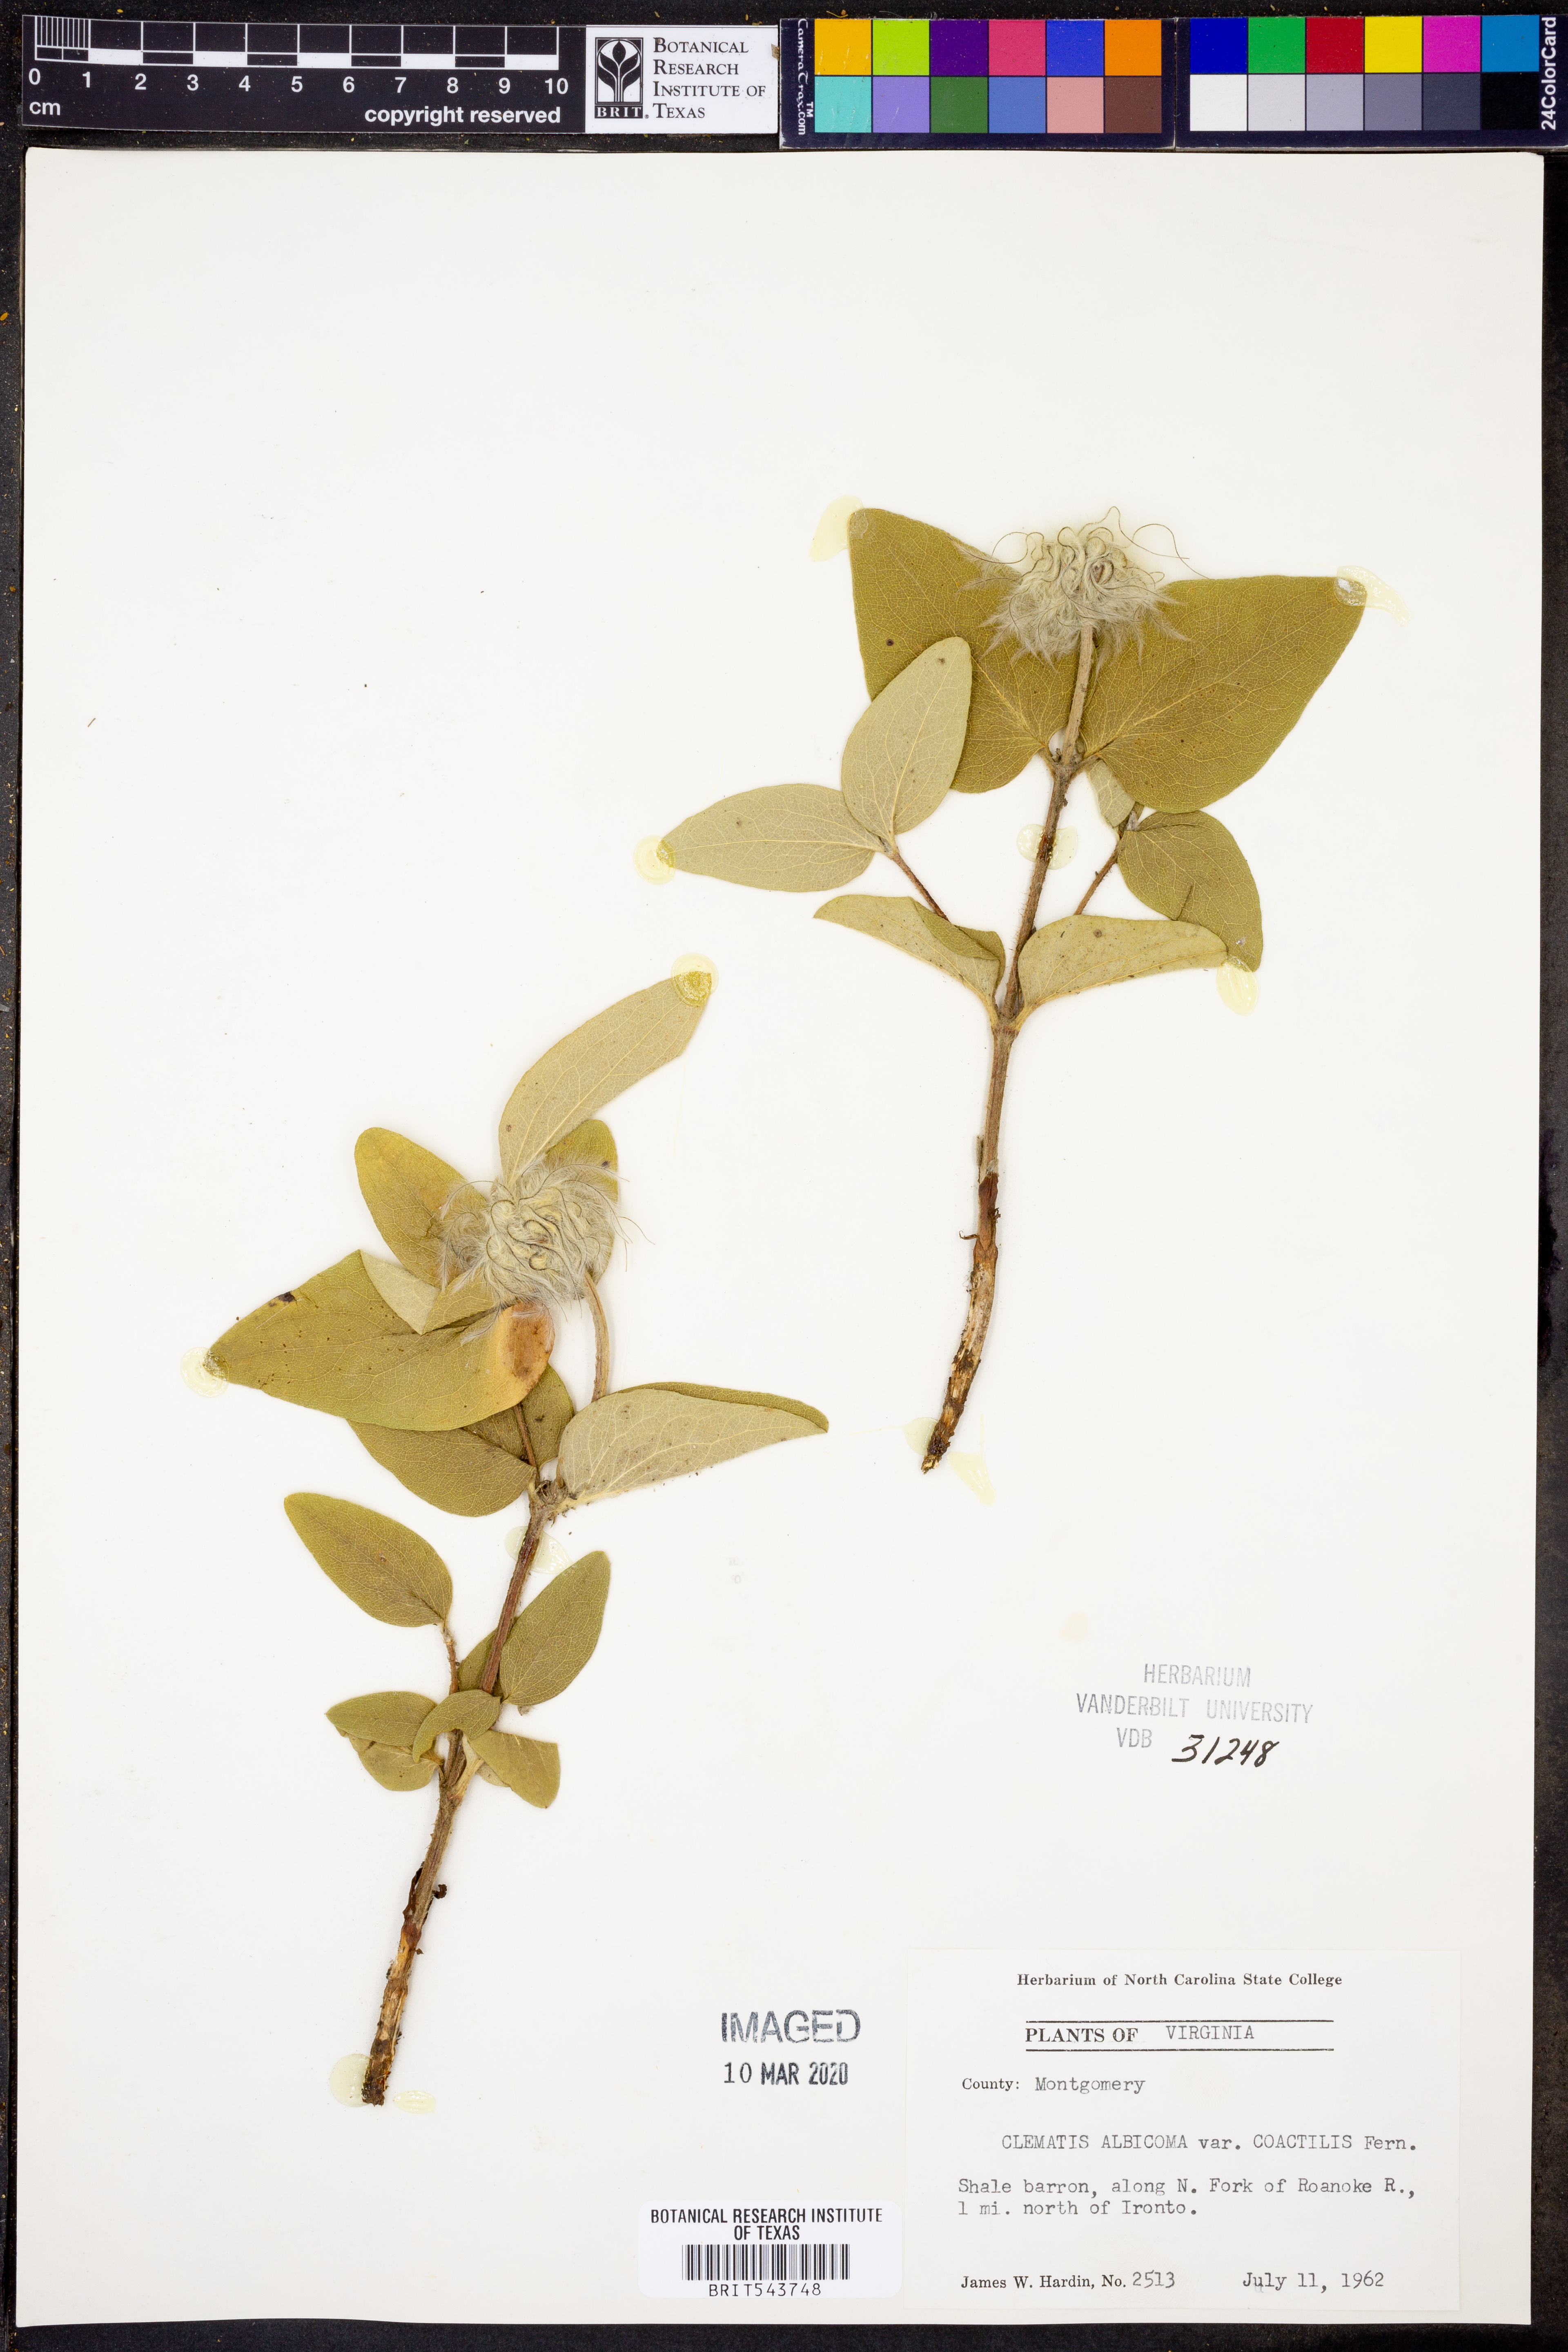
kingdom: Plantae
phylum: Tracheophyta
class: Magnoliopsida
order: Ranunculales
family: Ranunculaceae
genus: Clematis
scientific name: Clematis coactilis
